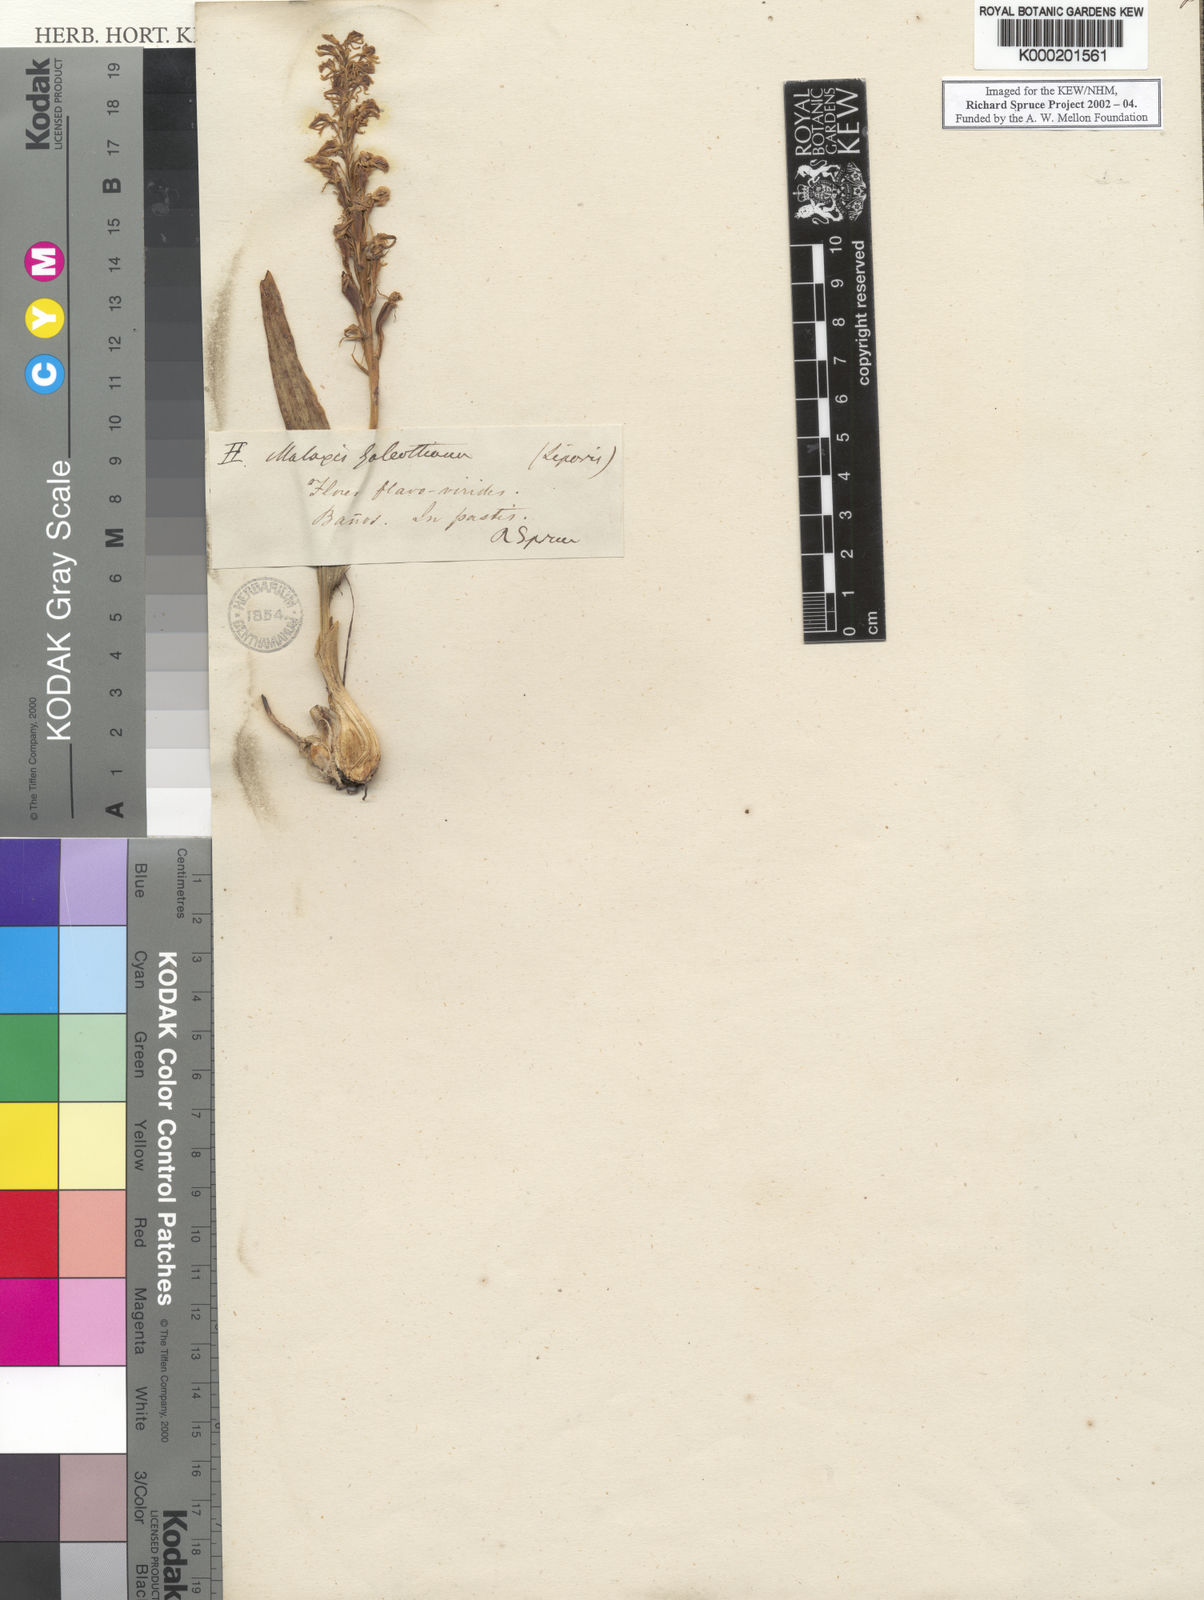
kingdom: Plantae
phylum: Tracheophyta
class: Liliopsida
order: Asparagales
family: Orchidaceae
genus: Liparis
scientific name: Liparis jamaicensis
